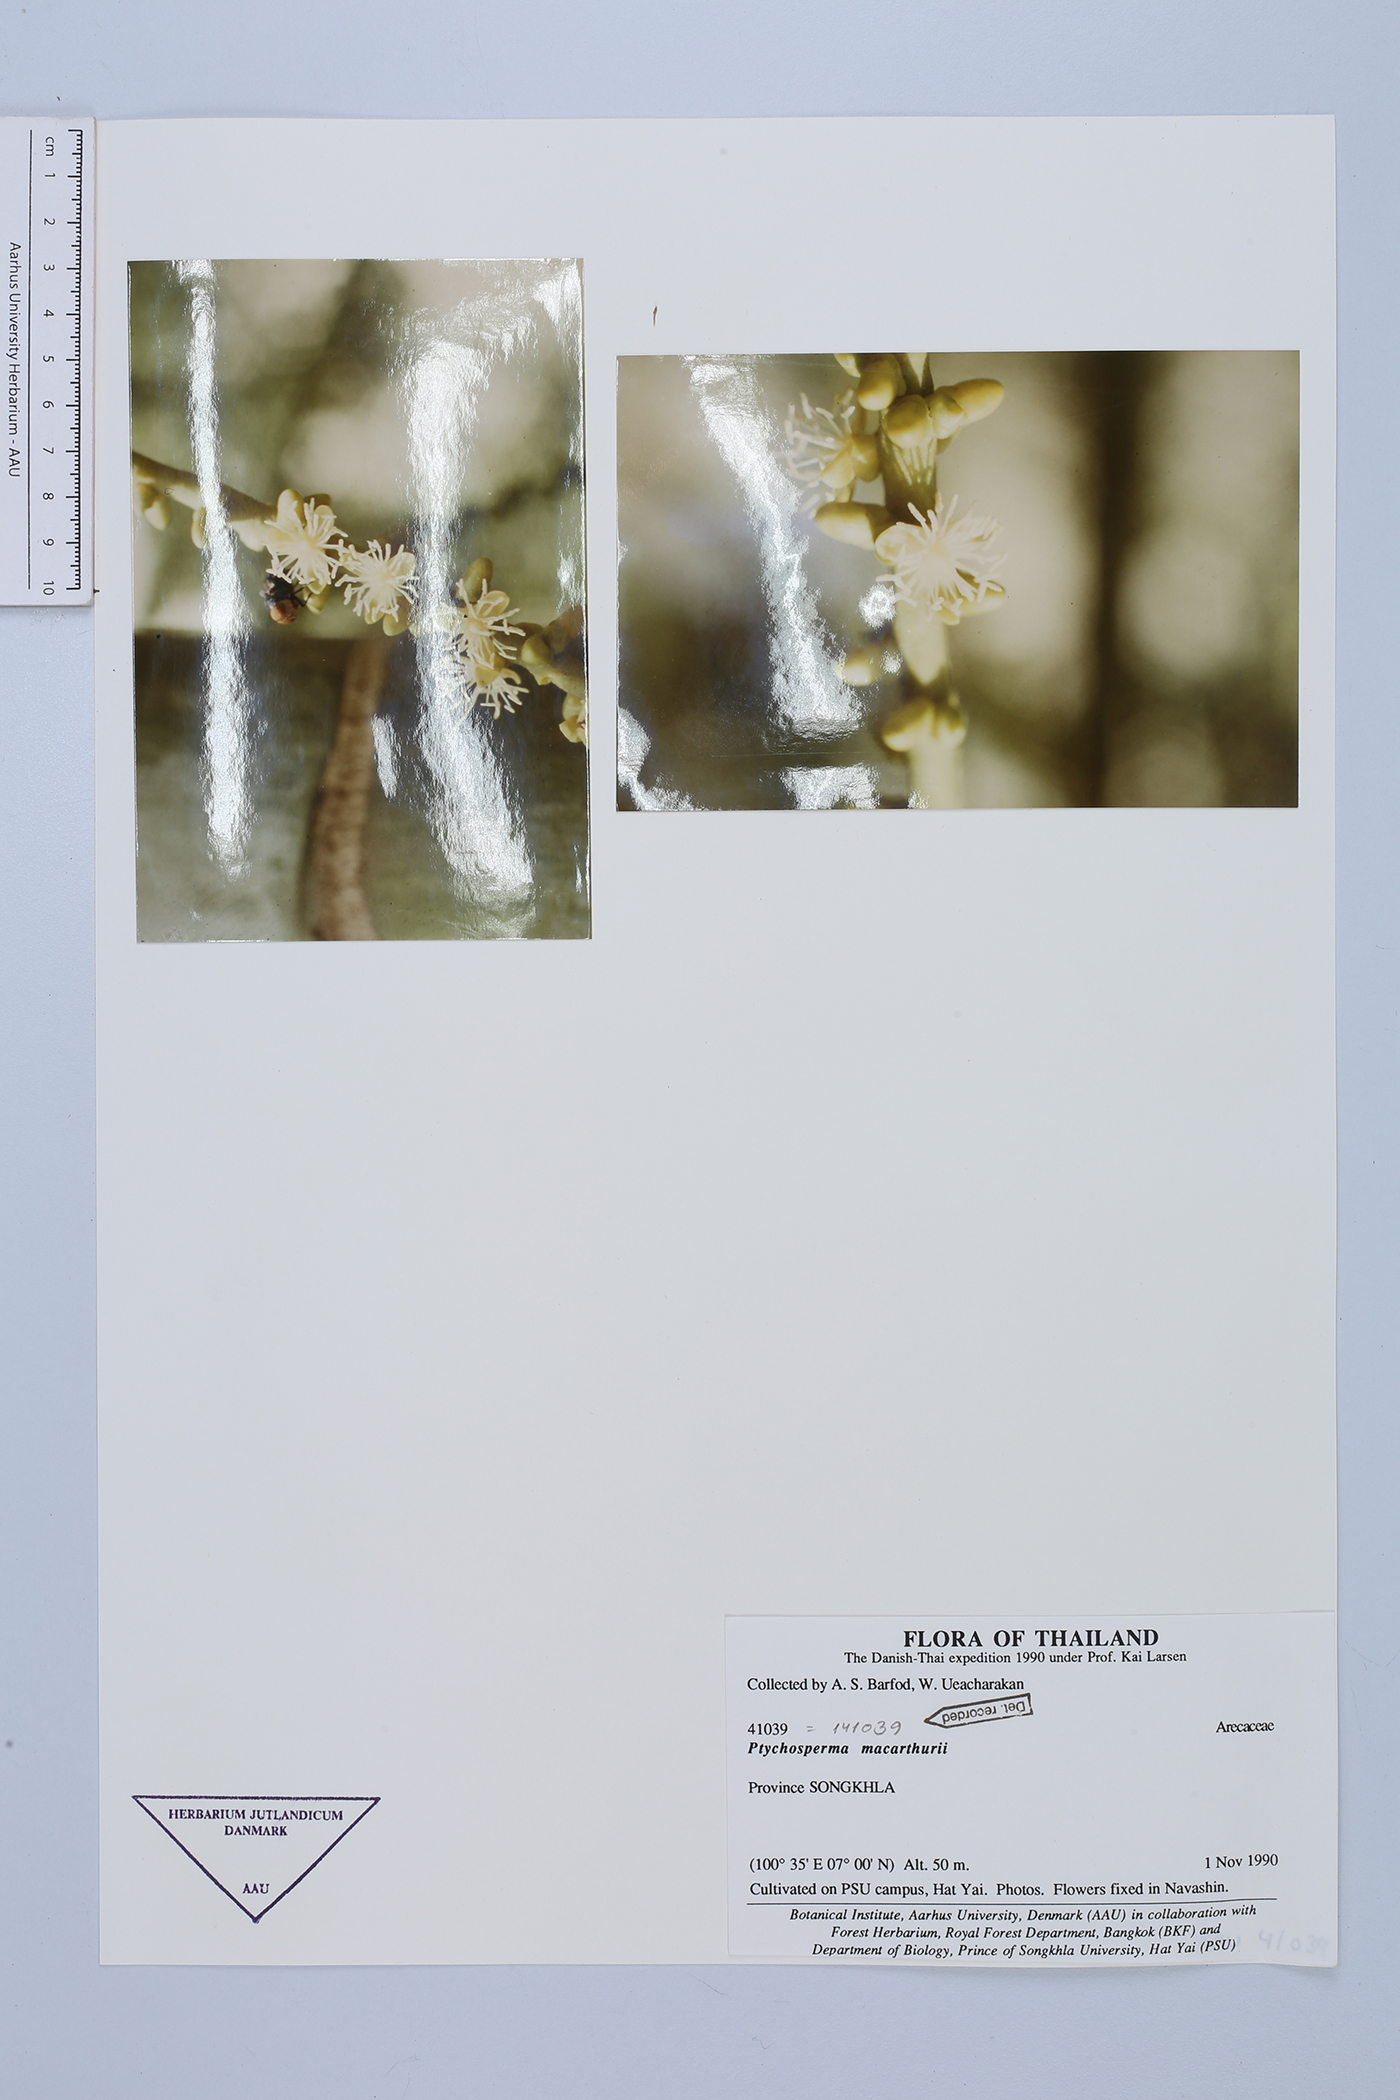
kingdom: Plantae
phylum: Tracheophyta
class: Liliopsida
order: Arecales
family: Arecaceae
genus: Ptychosperma
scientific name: Ptychosperma macarthurii
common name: Macarthur palm
